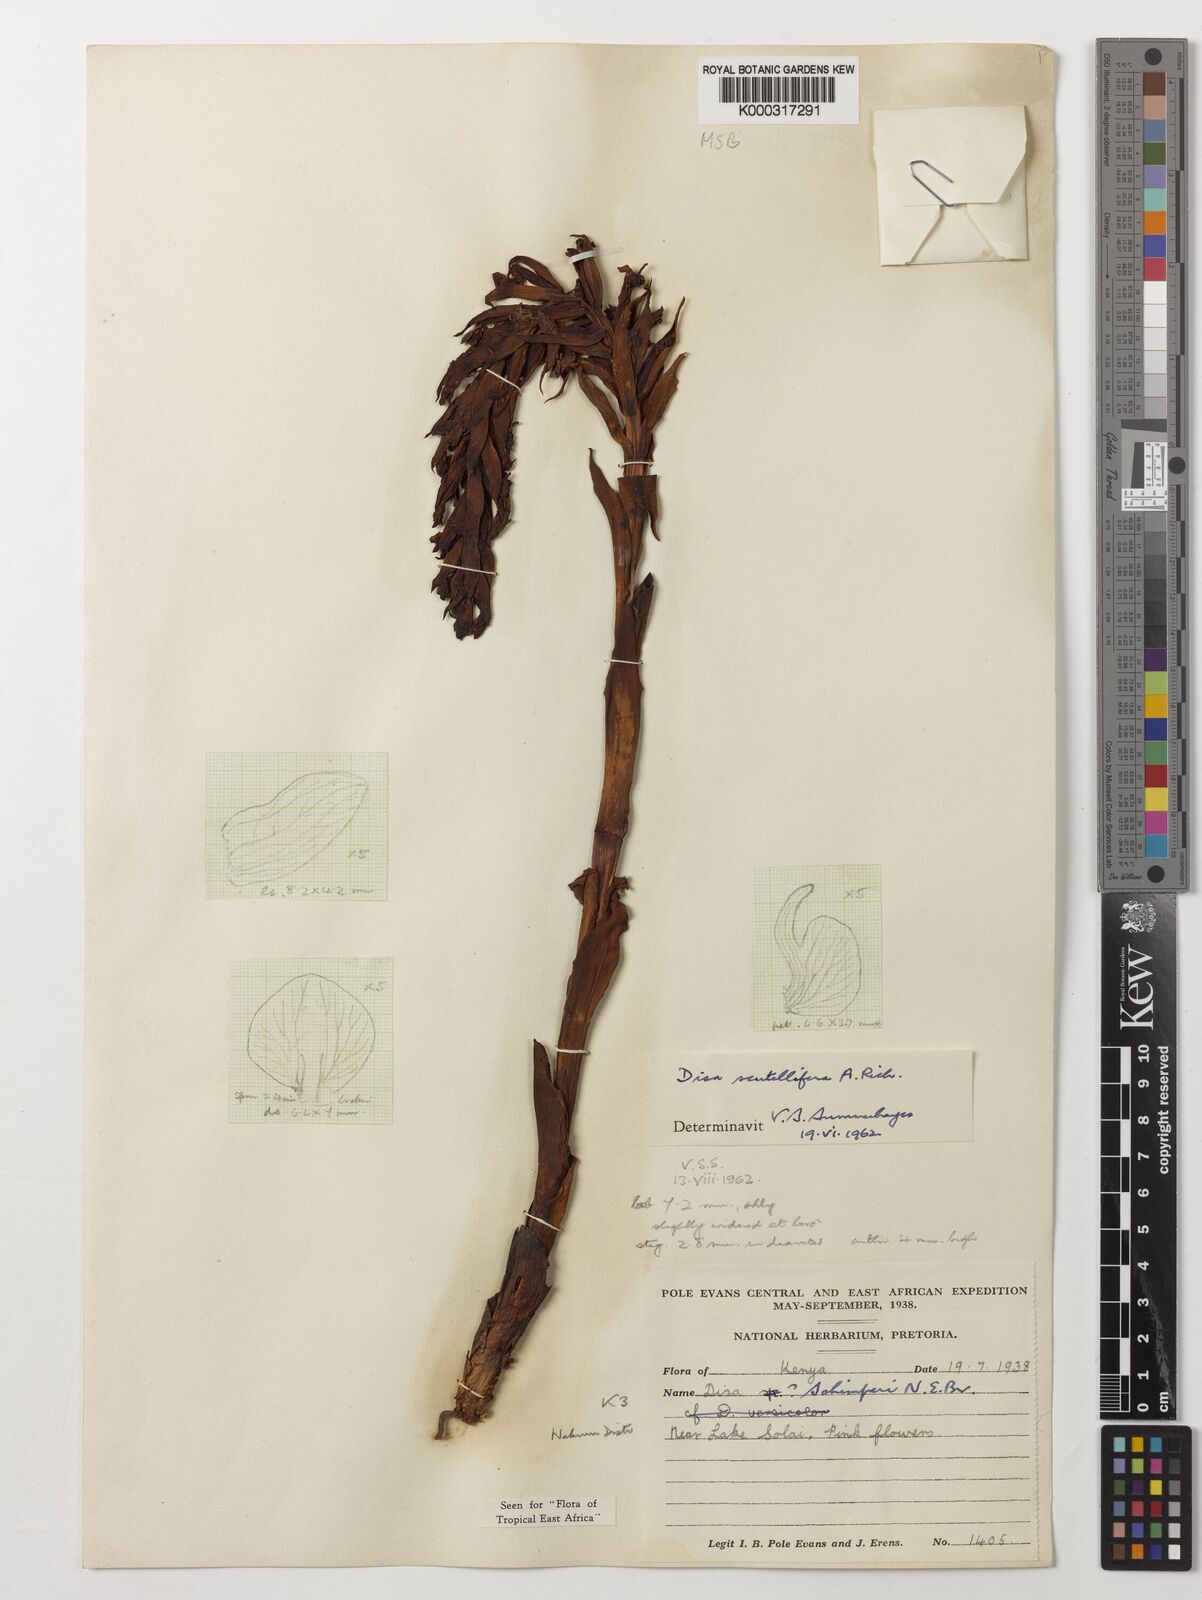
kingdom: Plantae
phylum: Tracheophyta
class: Liliopsida
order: Asparagales
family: Orchidaceae
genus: Disa
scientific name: Disa scutellifera
